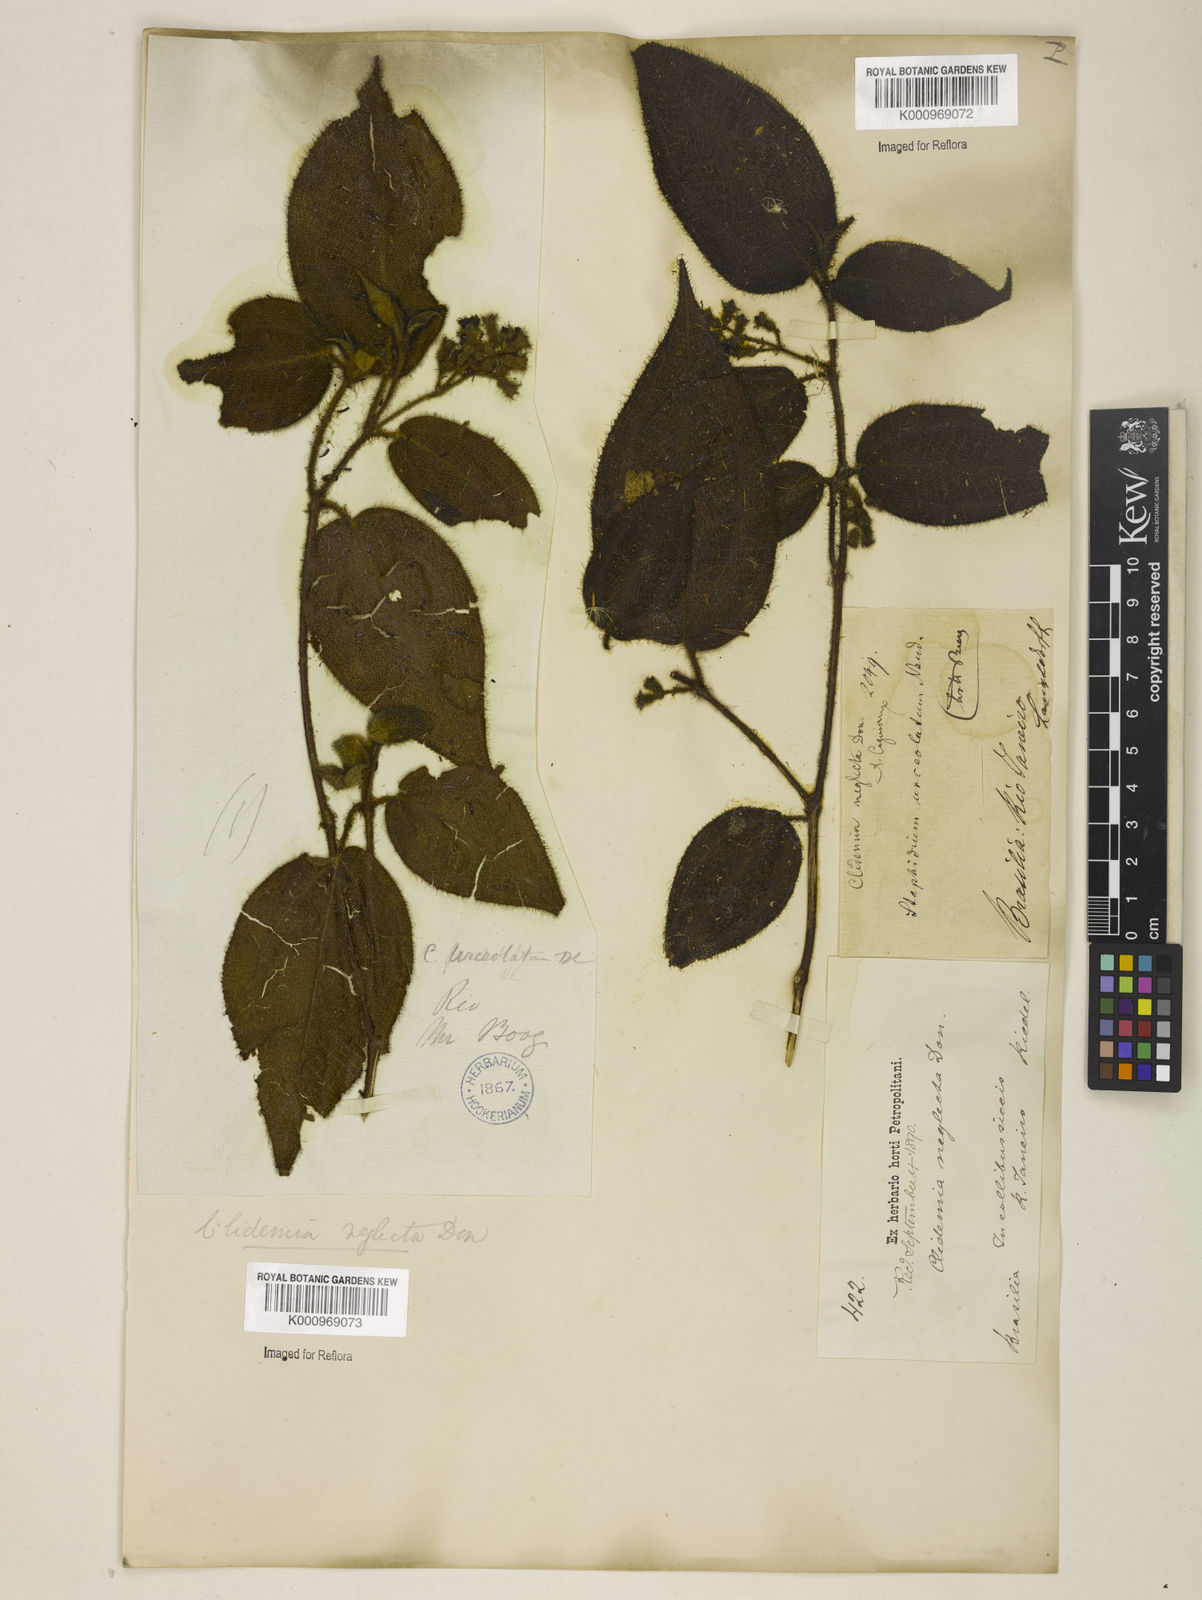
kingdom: Plantae
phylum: Tracheophyta
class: Magnoliopsida
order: Myrtales
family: Melastomataceae
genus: Miconia
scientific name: Miconia dependens
